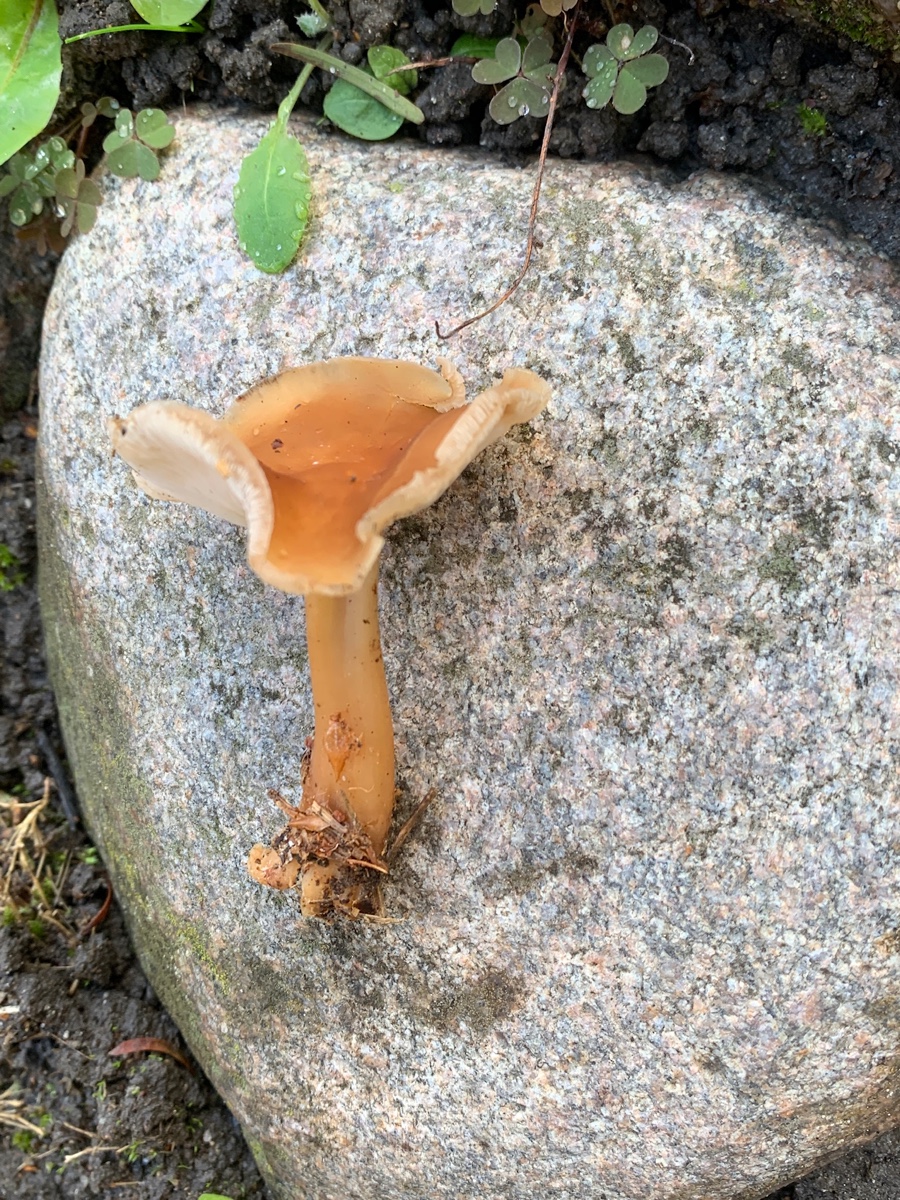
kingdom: Fungi
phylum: Basidiomycota
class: Agaricomycetes
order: Agaricales
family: Omphalotaceae
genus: Gymnopus
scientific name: Gymnopus
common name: fladhat
